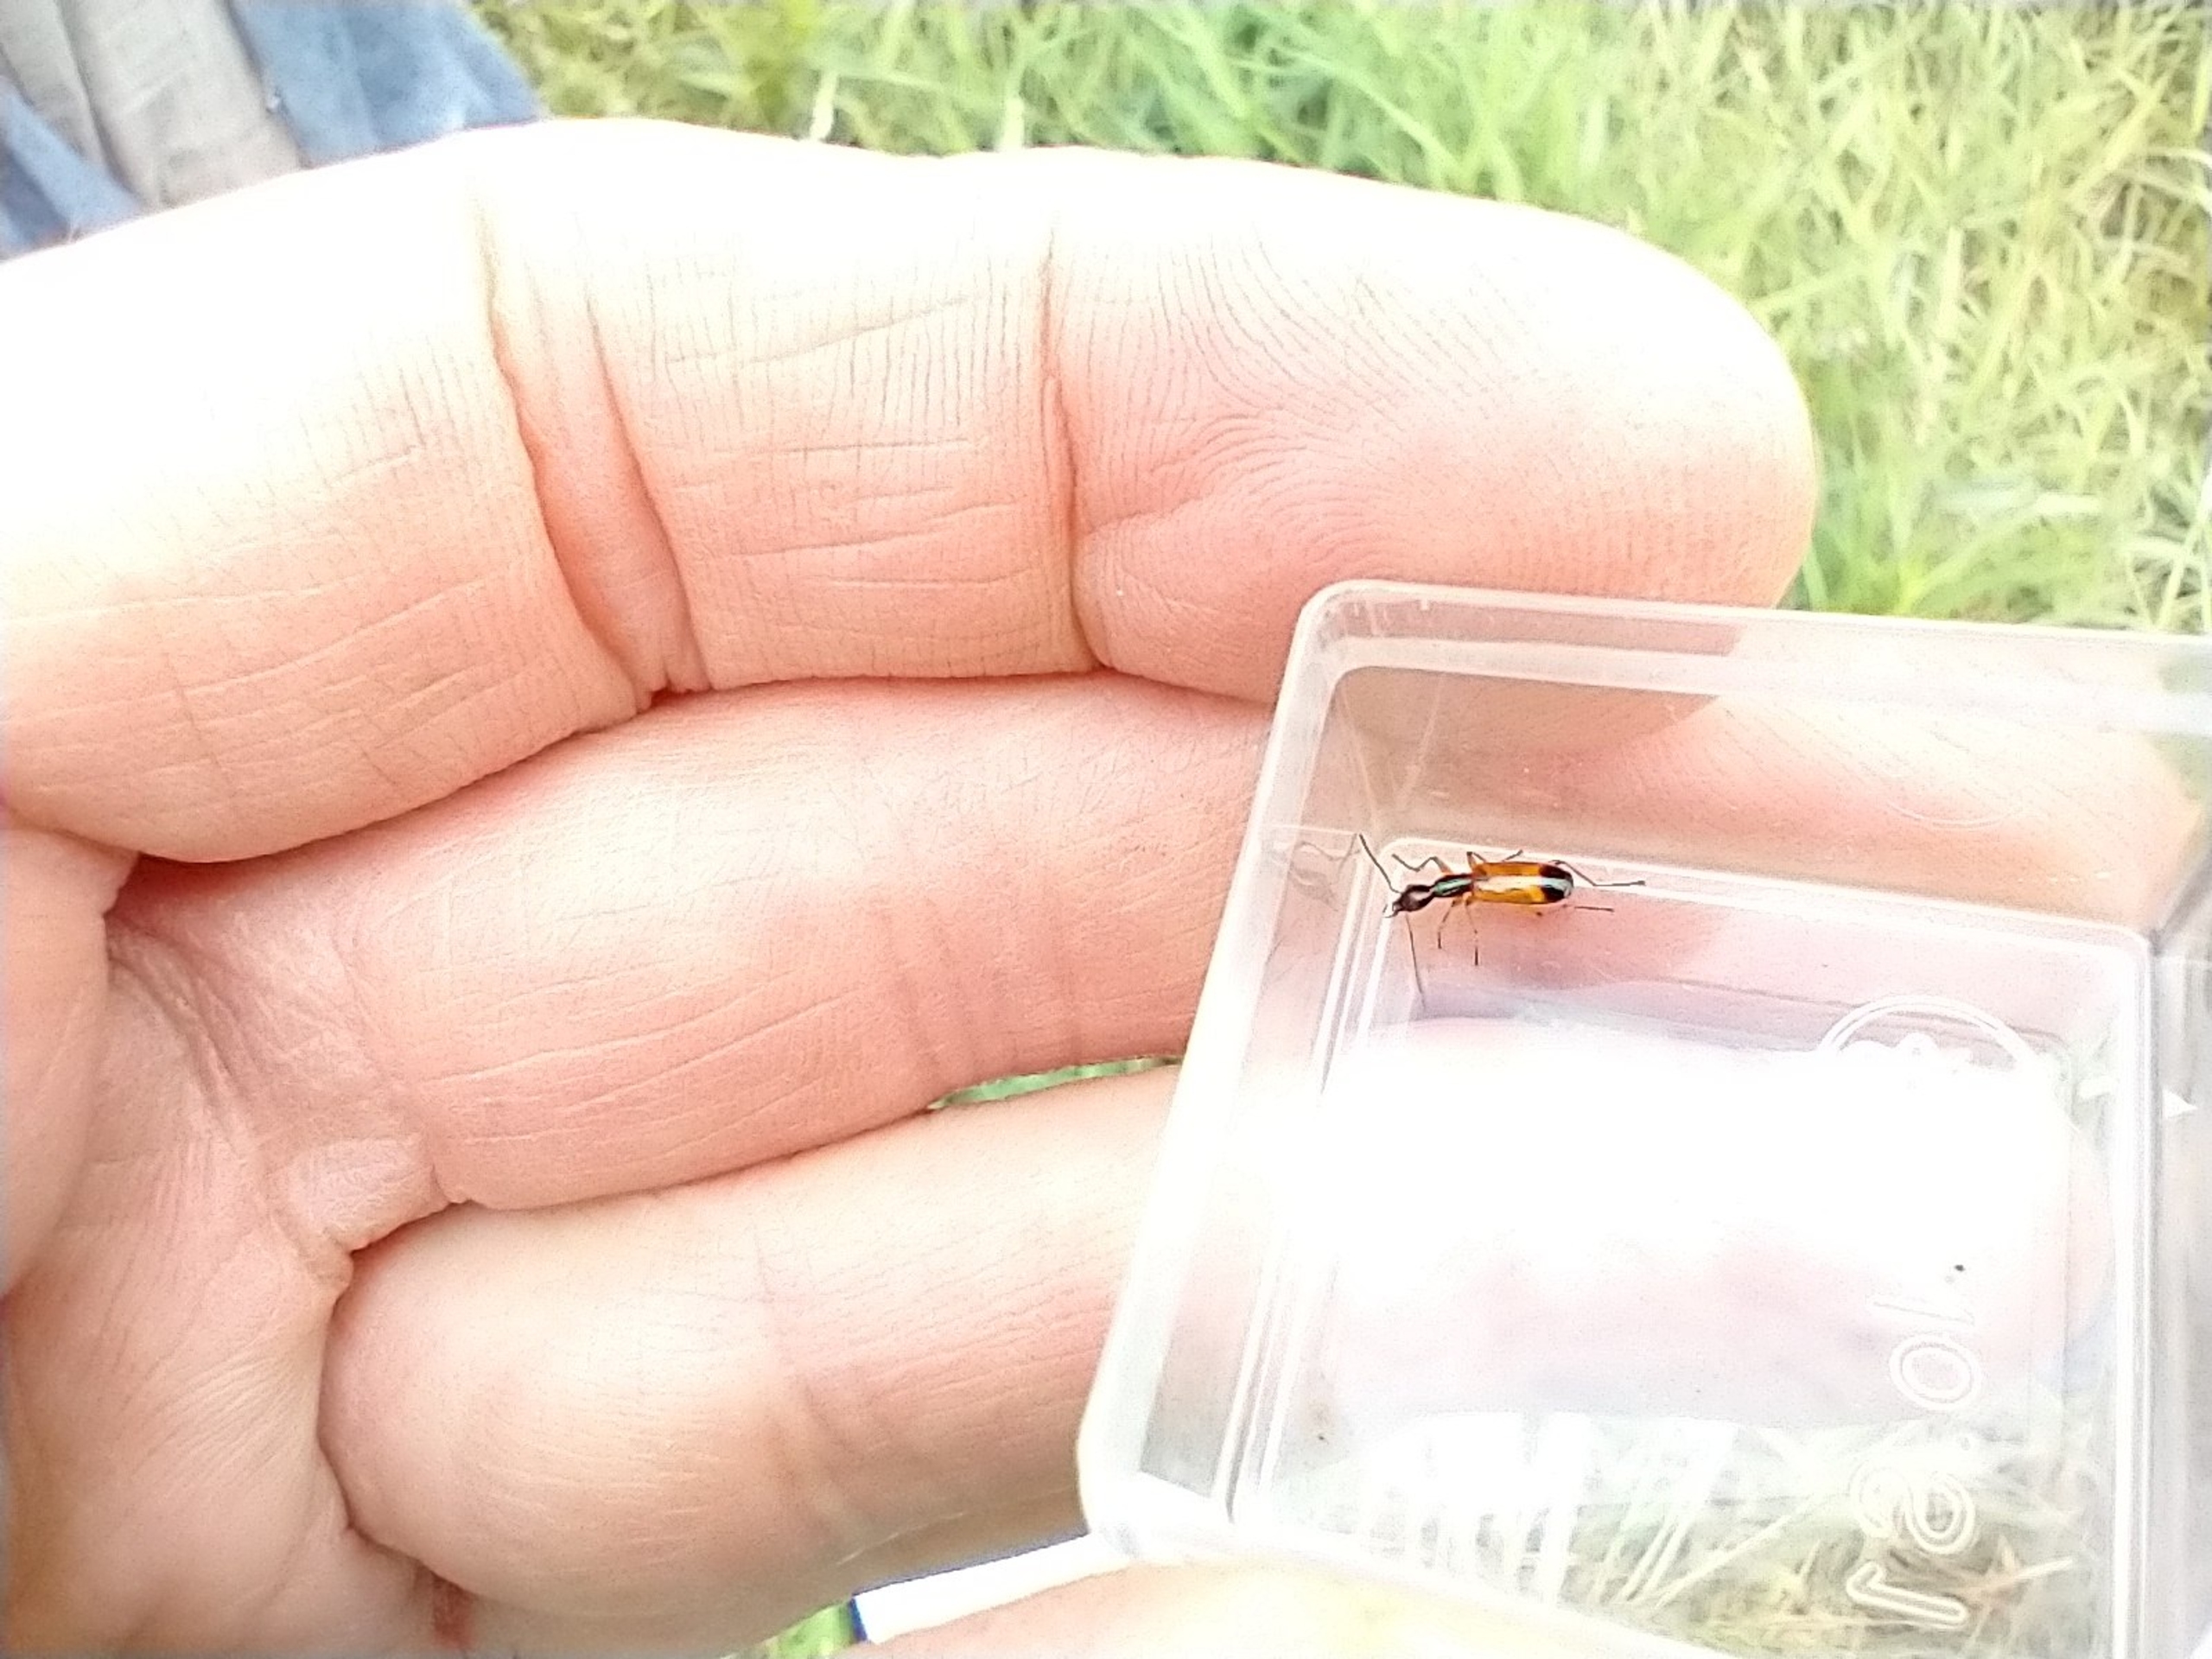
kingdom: Animalia
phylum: Arthropoda
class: Insecta
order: Coleoptera
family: Carabidae
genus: Odacantha
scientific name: Odacantha melanura
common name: Rødløber
